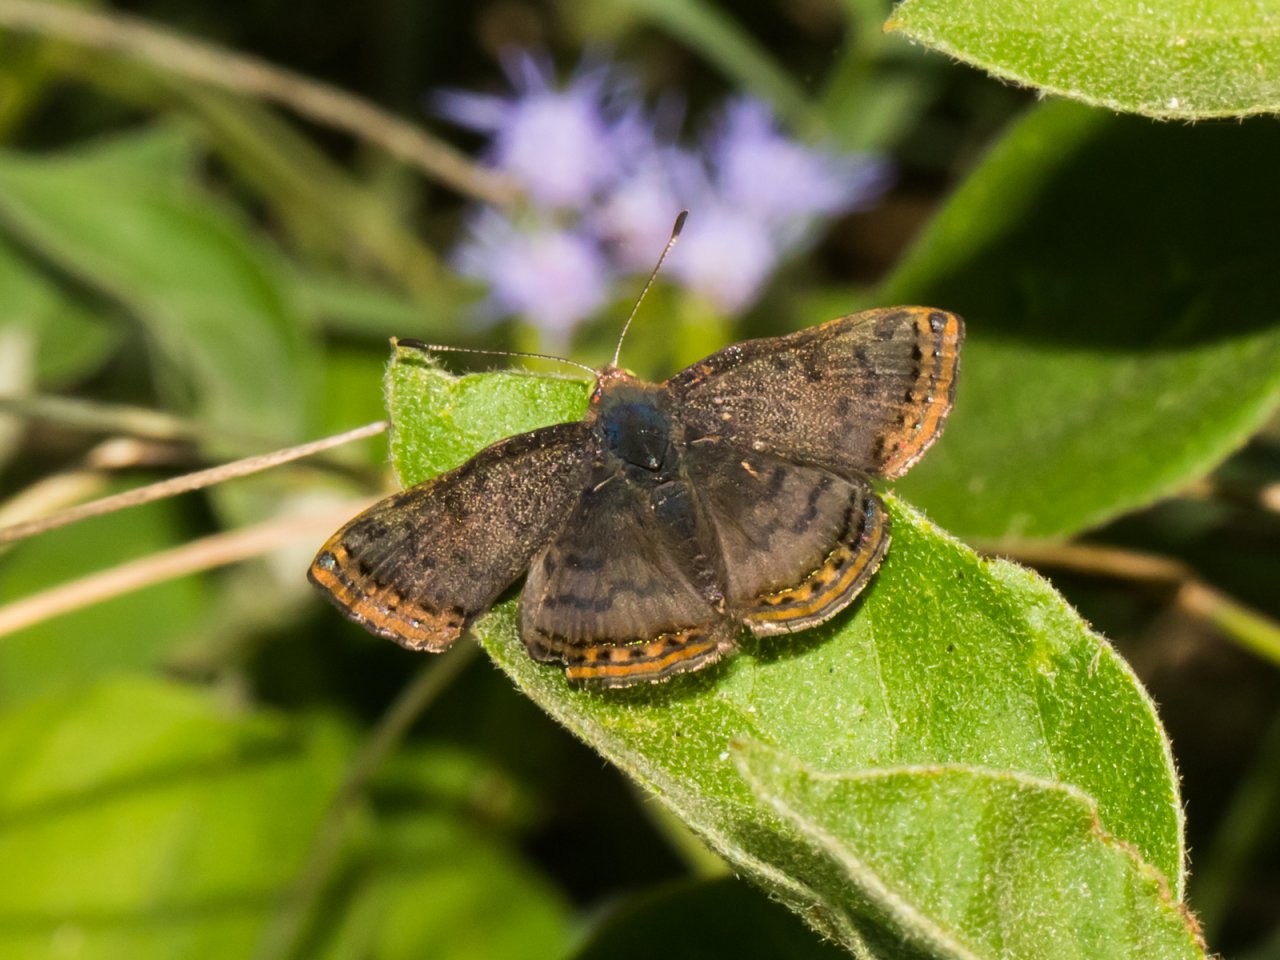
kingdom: Animalia
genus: Caria
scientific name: Caria ino
